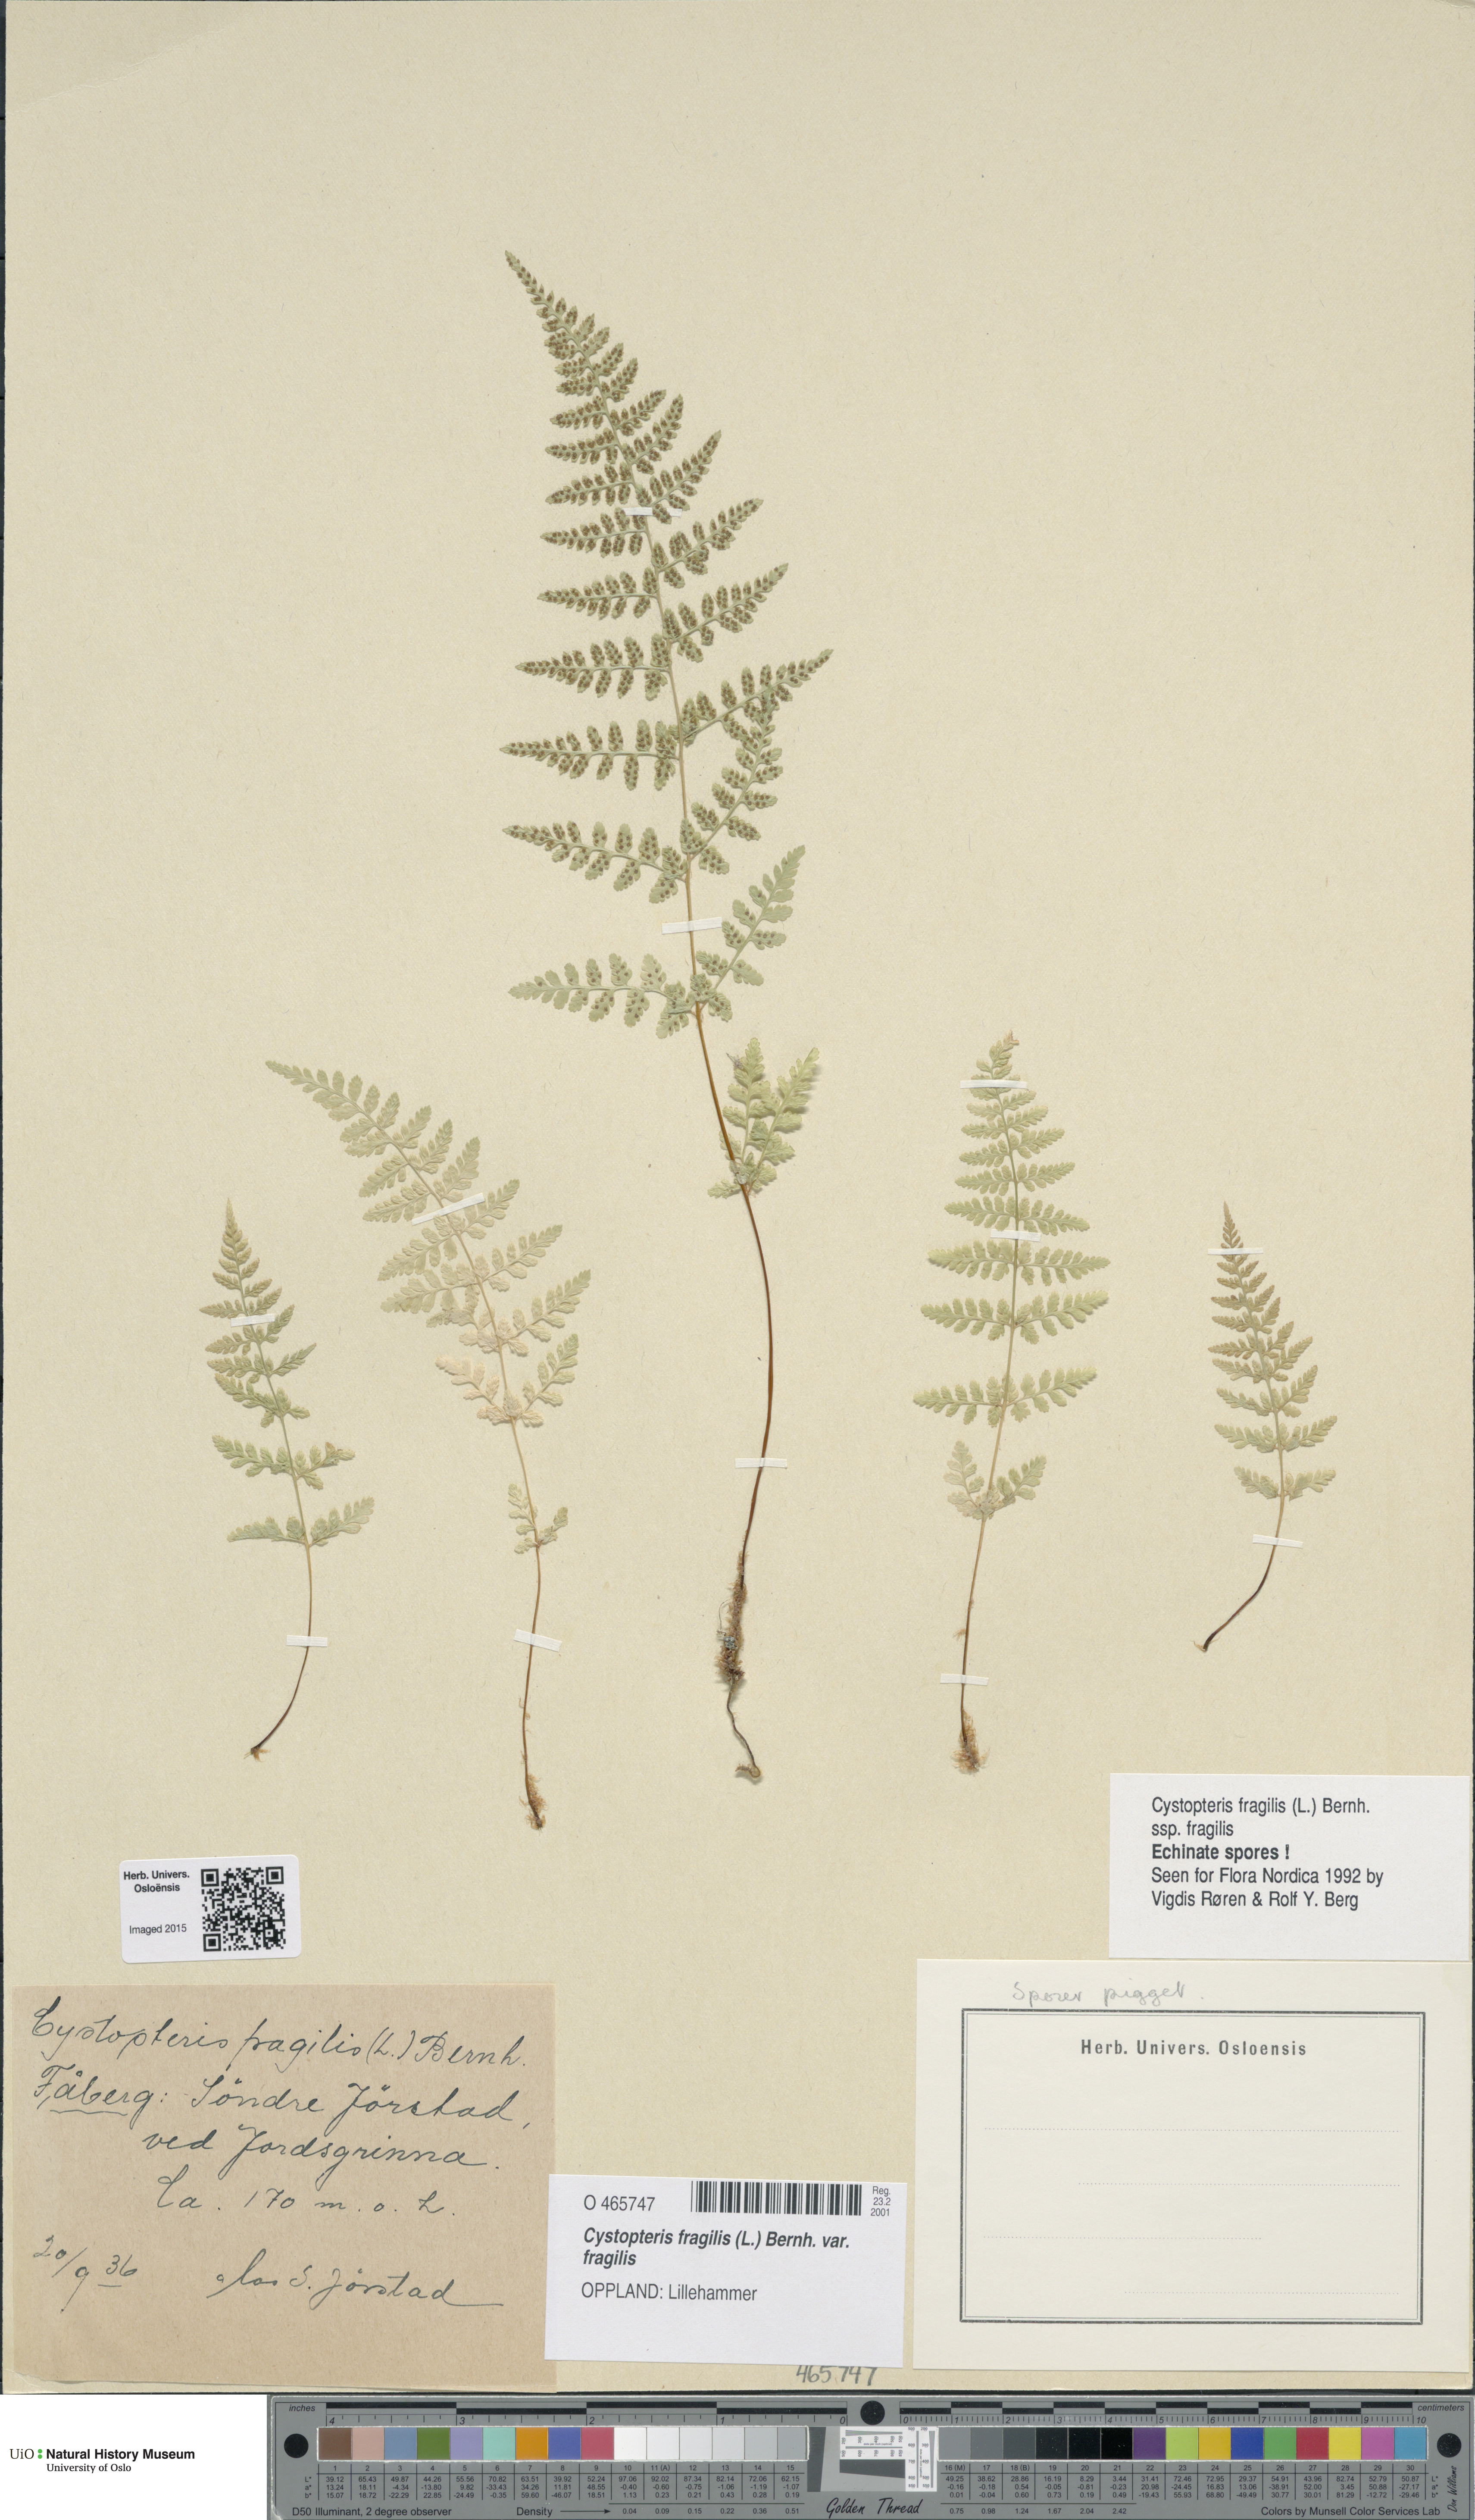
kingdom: Plantae
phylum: Tracheophyta
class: Polypodiopsida
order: Polypodiales
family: Cystopteridaceae
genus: Cystopteris
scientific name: Cystopteris fragilis
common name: Brittle bladder fern
